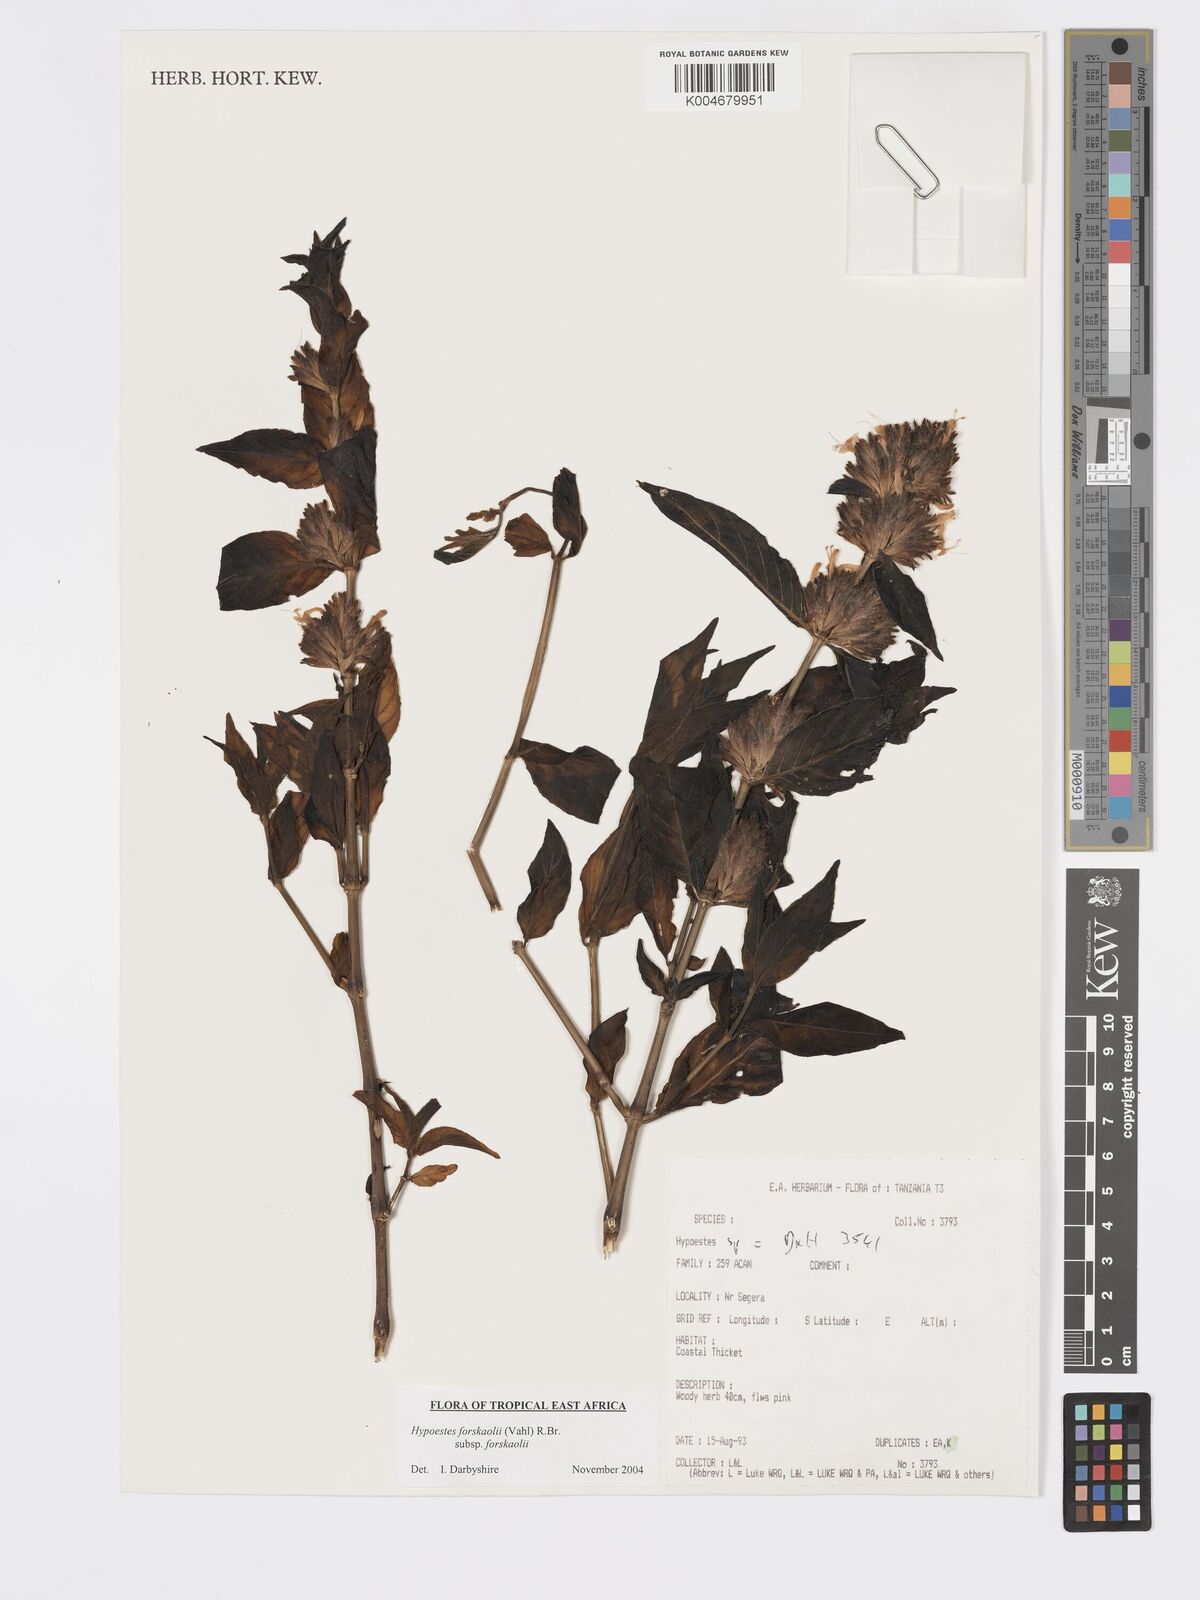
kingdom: Plantae
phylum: Tracheophyta
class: Magnoliopsida
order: Lamiales
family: Acanthaceae
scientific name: Acanthaceae
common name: Acanthaceae
